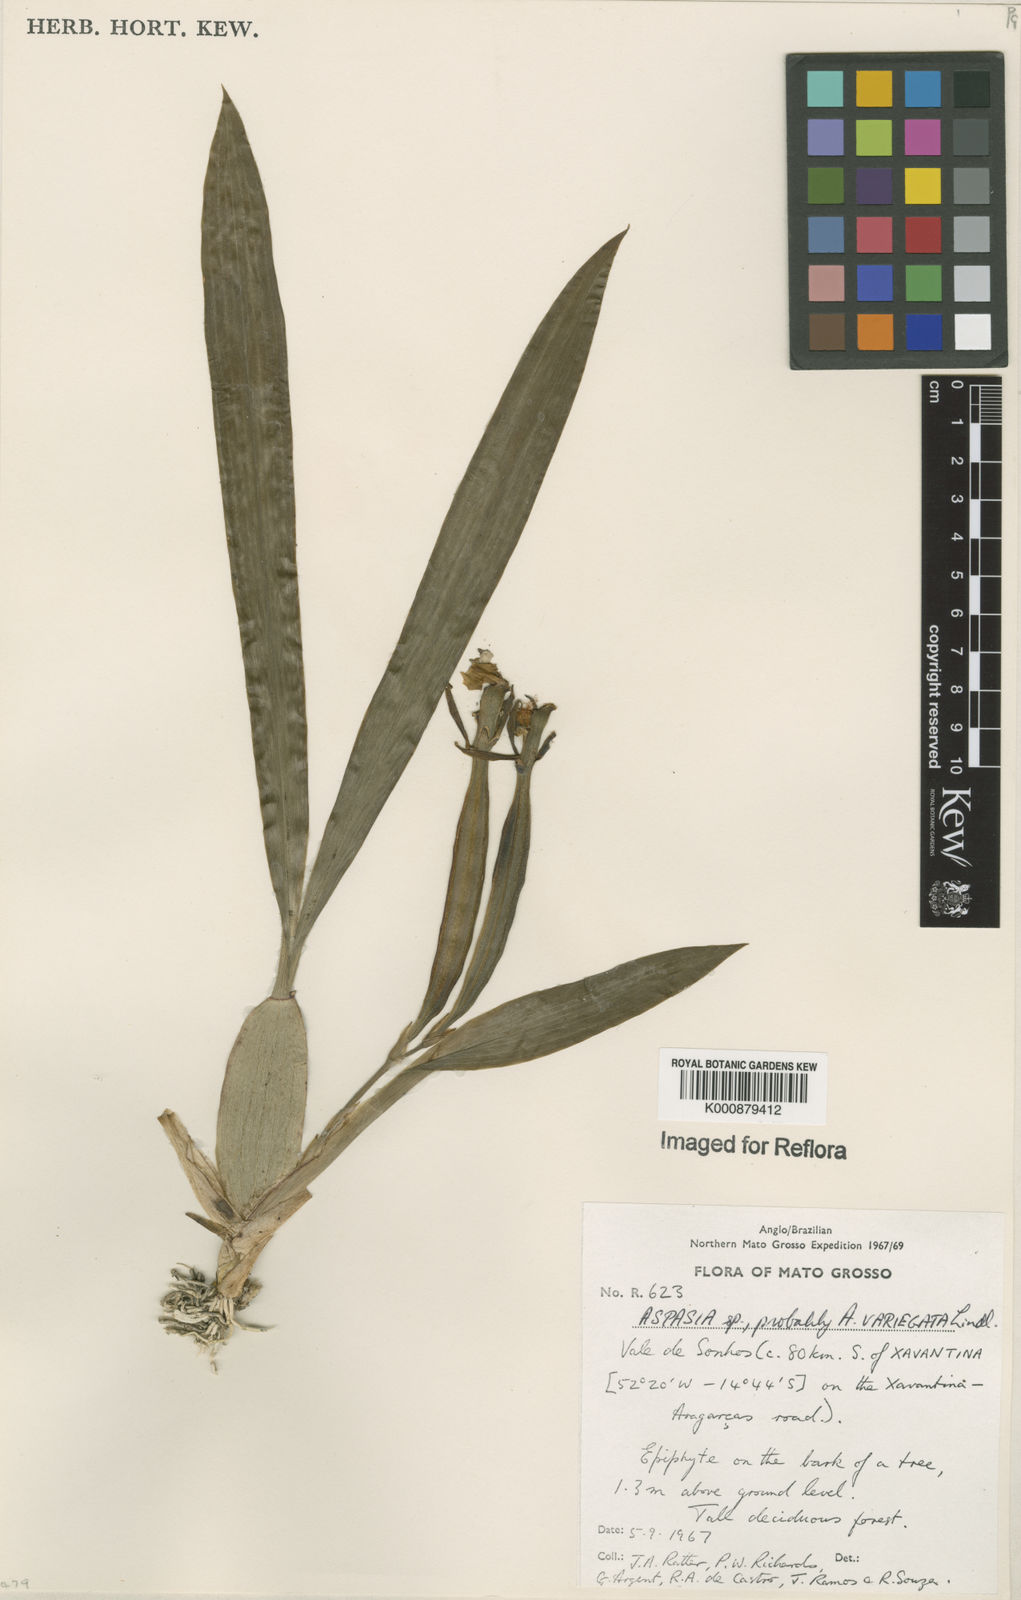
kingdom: Plantae
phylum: Tracheophyta
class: Liliopsida
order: Asparagales
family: Orchidaceae
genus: Aspasia
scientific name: Aspasia variegata
